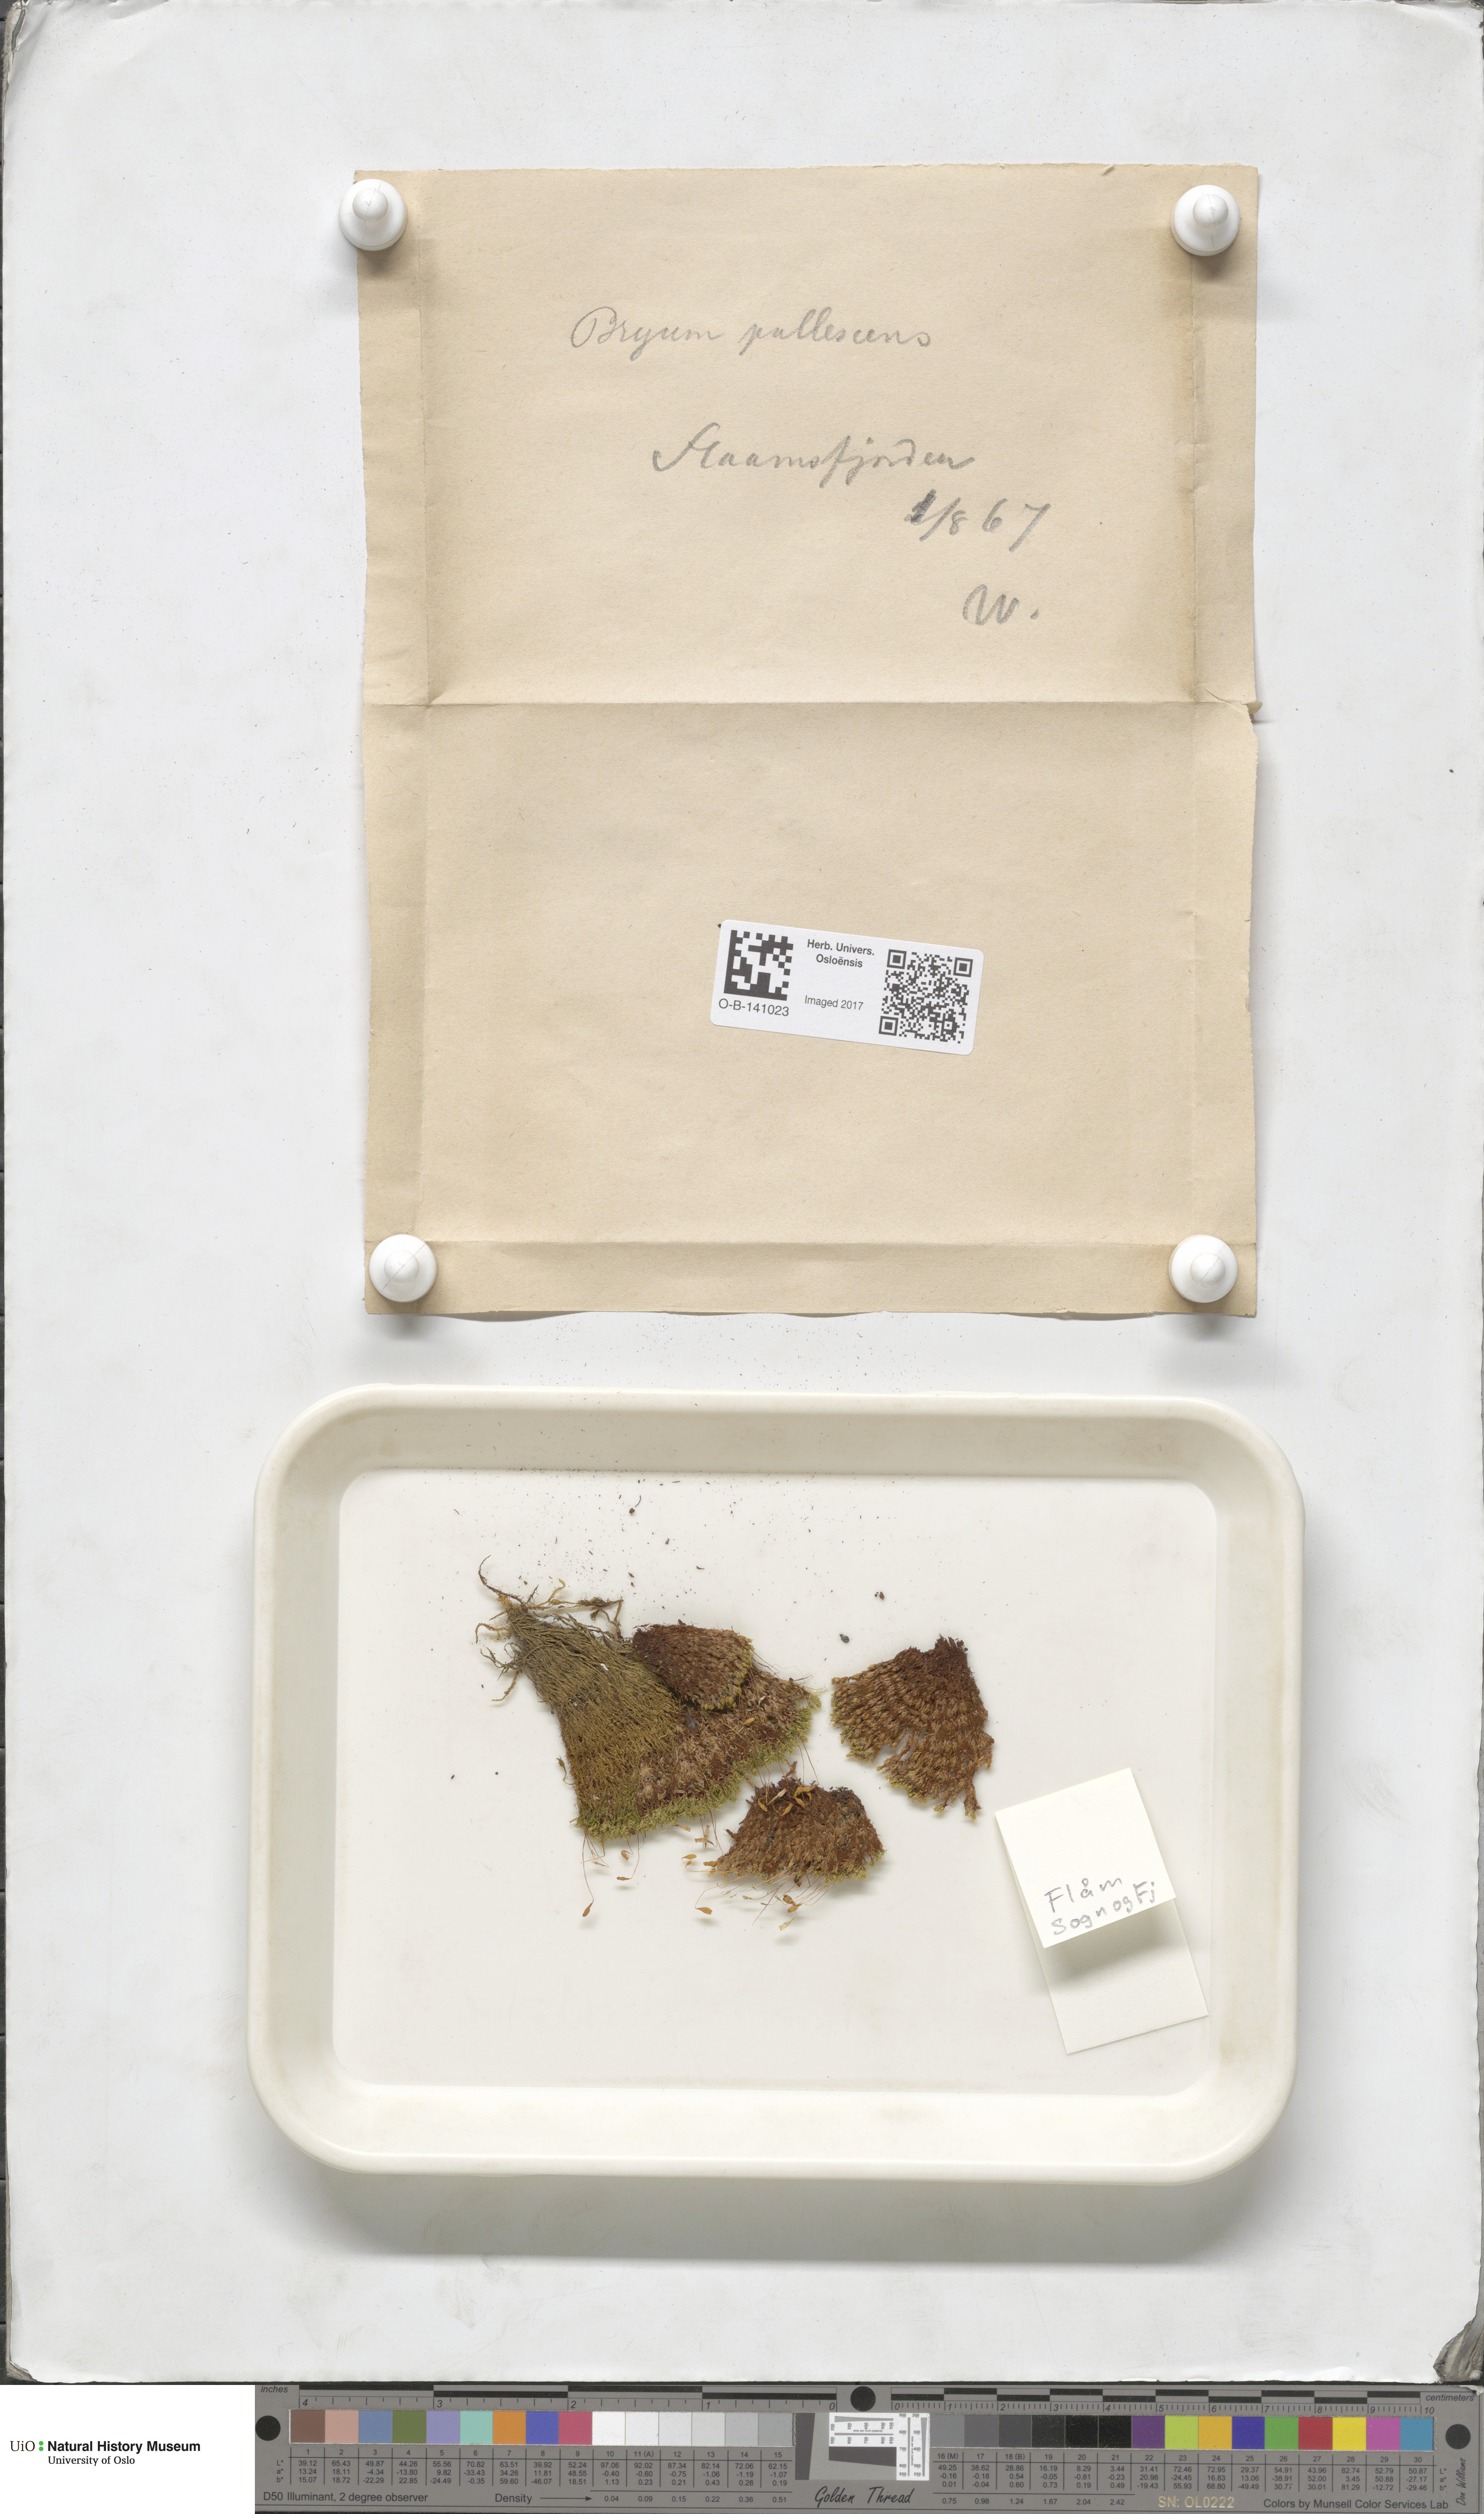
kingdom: Plantae
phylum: Bryophyta
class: Bryopsida
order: Bryales
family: Bryaceae
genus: Ptychostomum
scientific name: Ptychostomum pallescens
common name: Tall-clustered thread-moss
